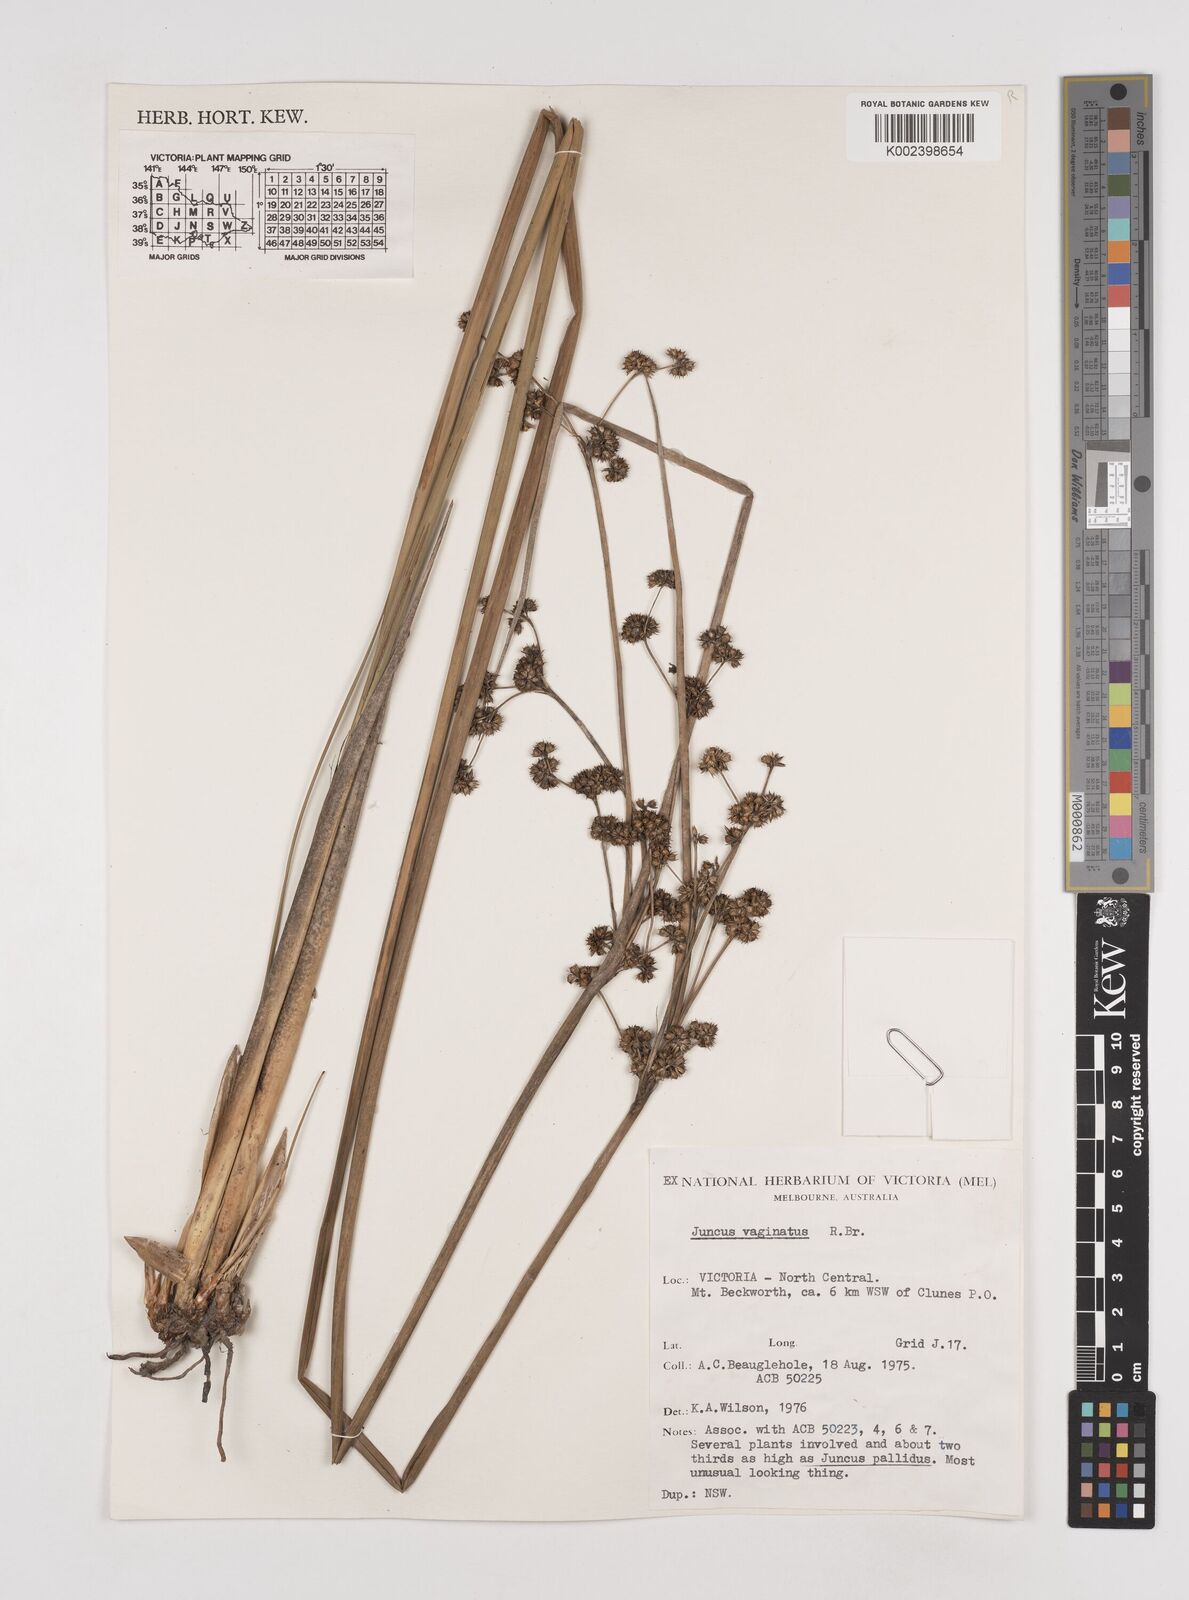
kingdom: Plantae
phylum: Tracheophyta
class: Liliopsida
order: Poales
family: Juncaceae
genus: Juncus
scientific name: Juncus vaginatus
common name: Clustered rush
